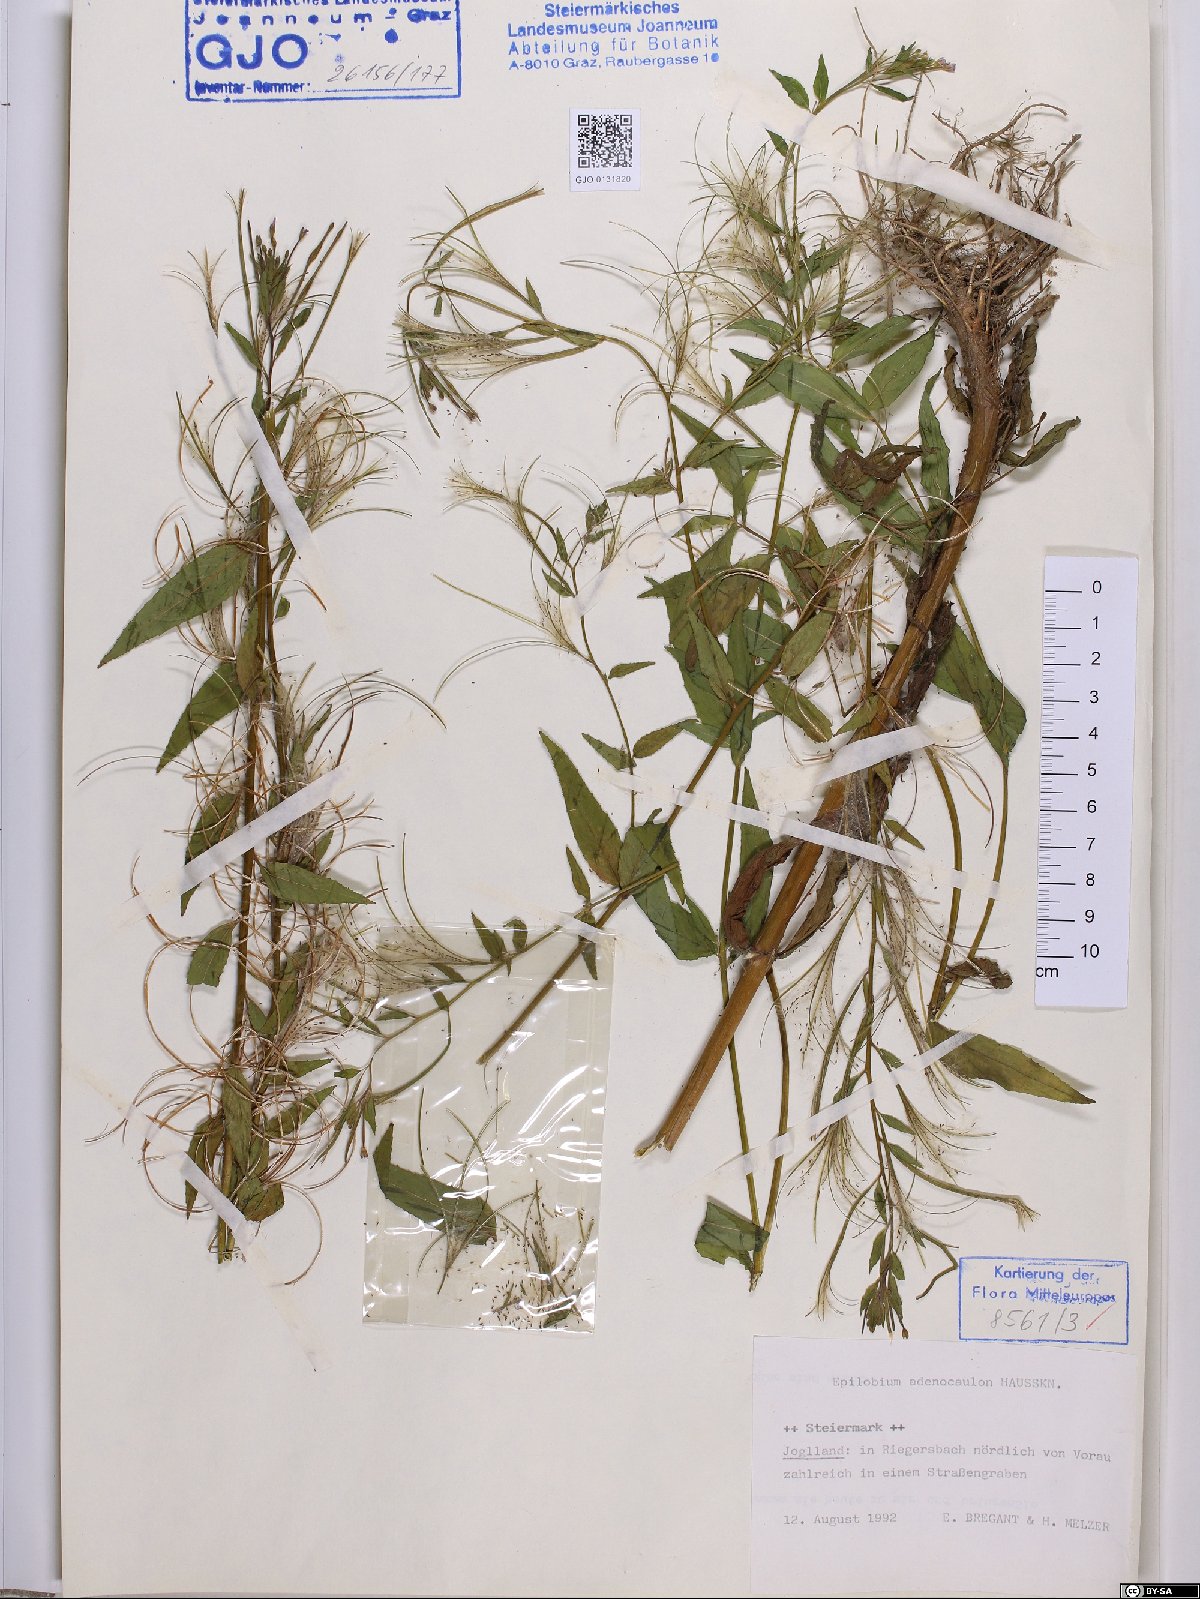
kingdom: Plantae
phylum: Tracheophyta
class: Magnoliopsida
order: Myrtales
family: Onagraceae
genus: Epilobium
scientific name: Epilobium ciliatum
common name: American willowherb
